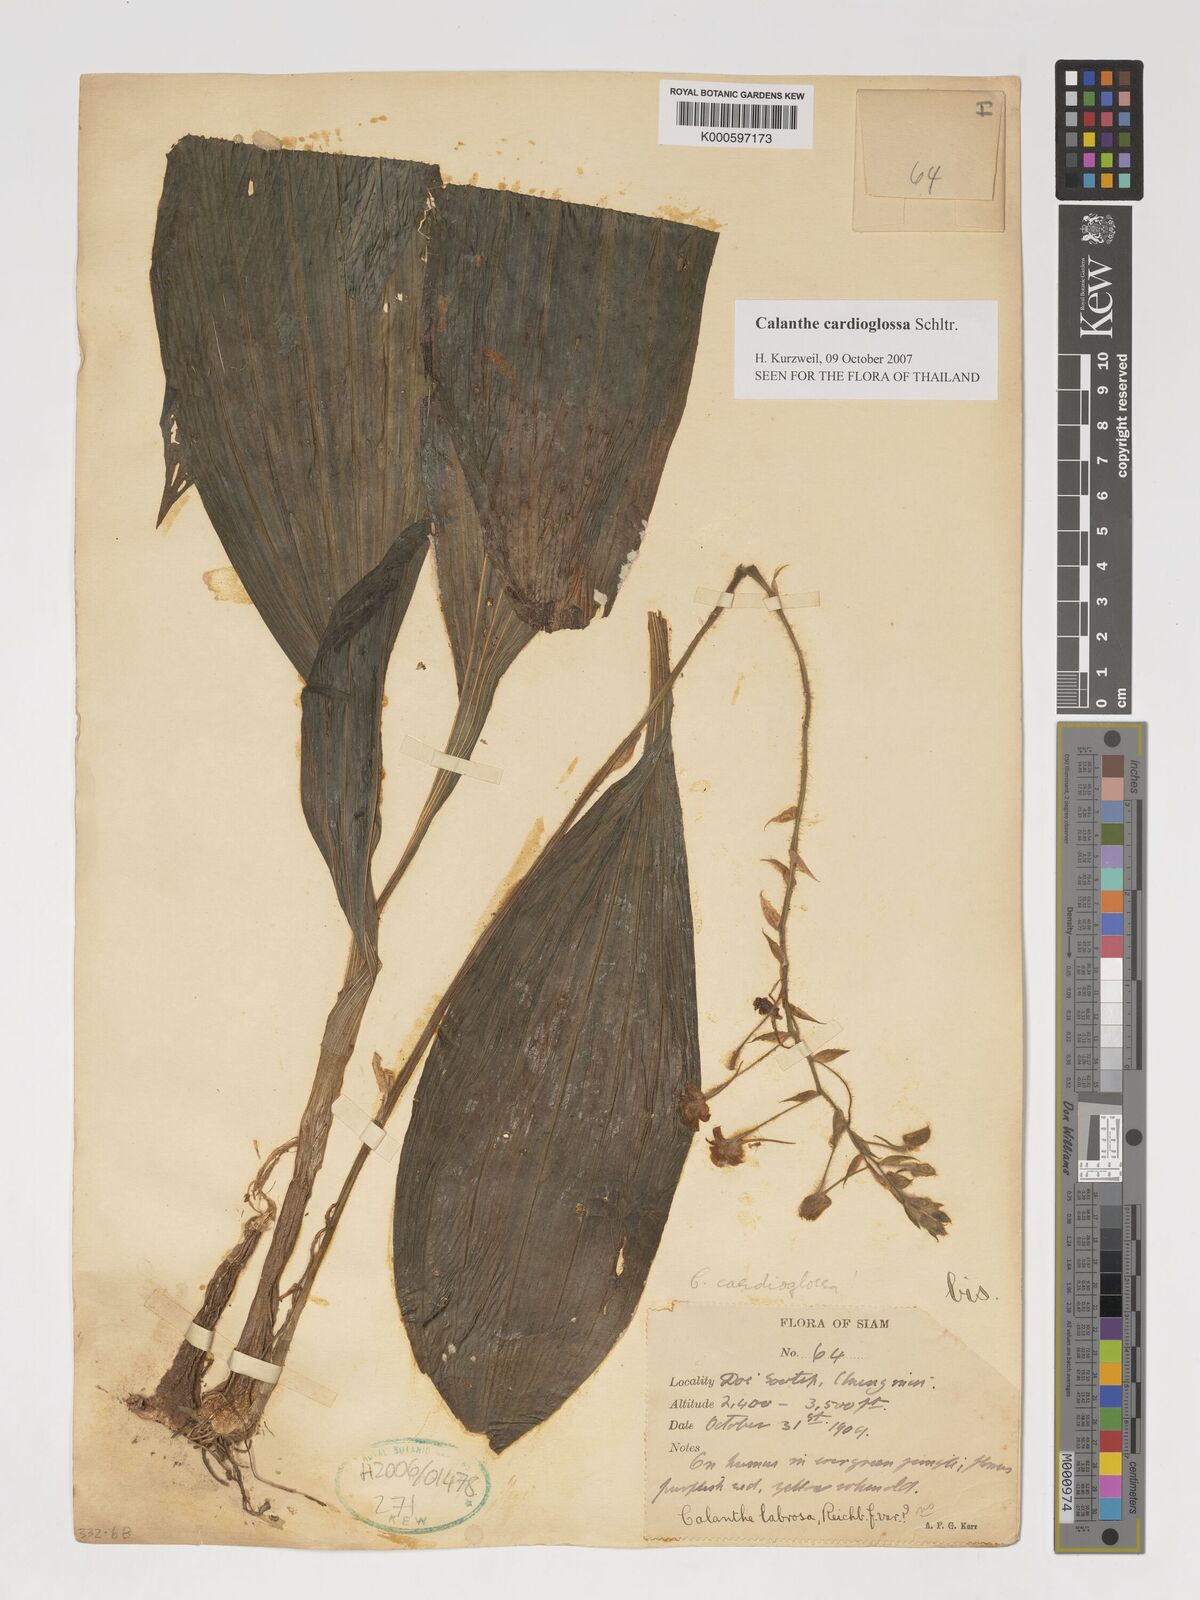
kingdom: Plantae
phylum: Tracheophyta
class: Liliopsida
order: Asparagales
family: Orchidaceae
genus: Calanthe
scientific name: Calanthe cardioglossa
